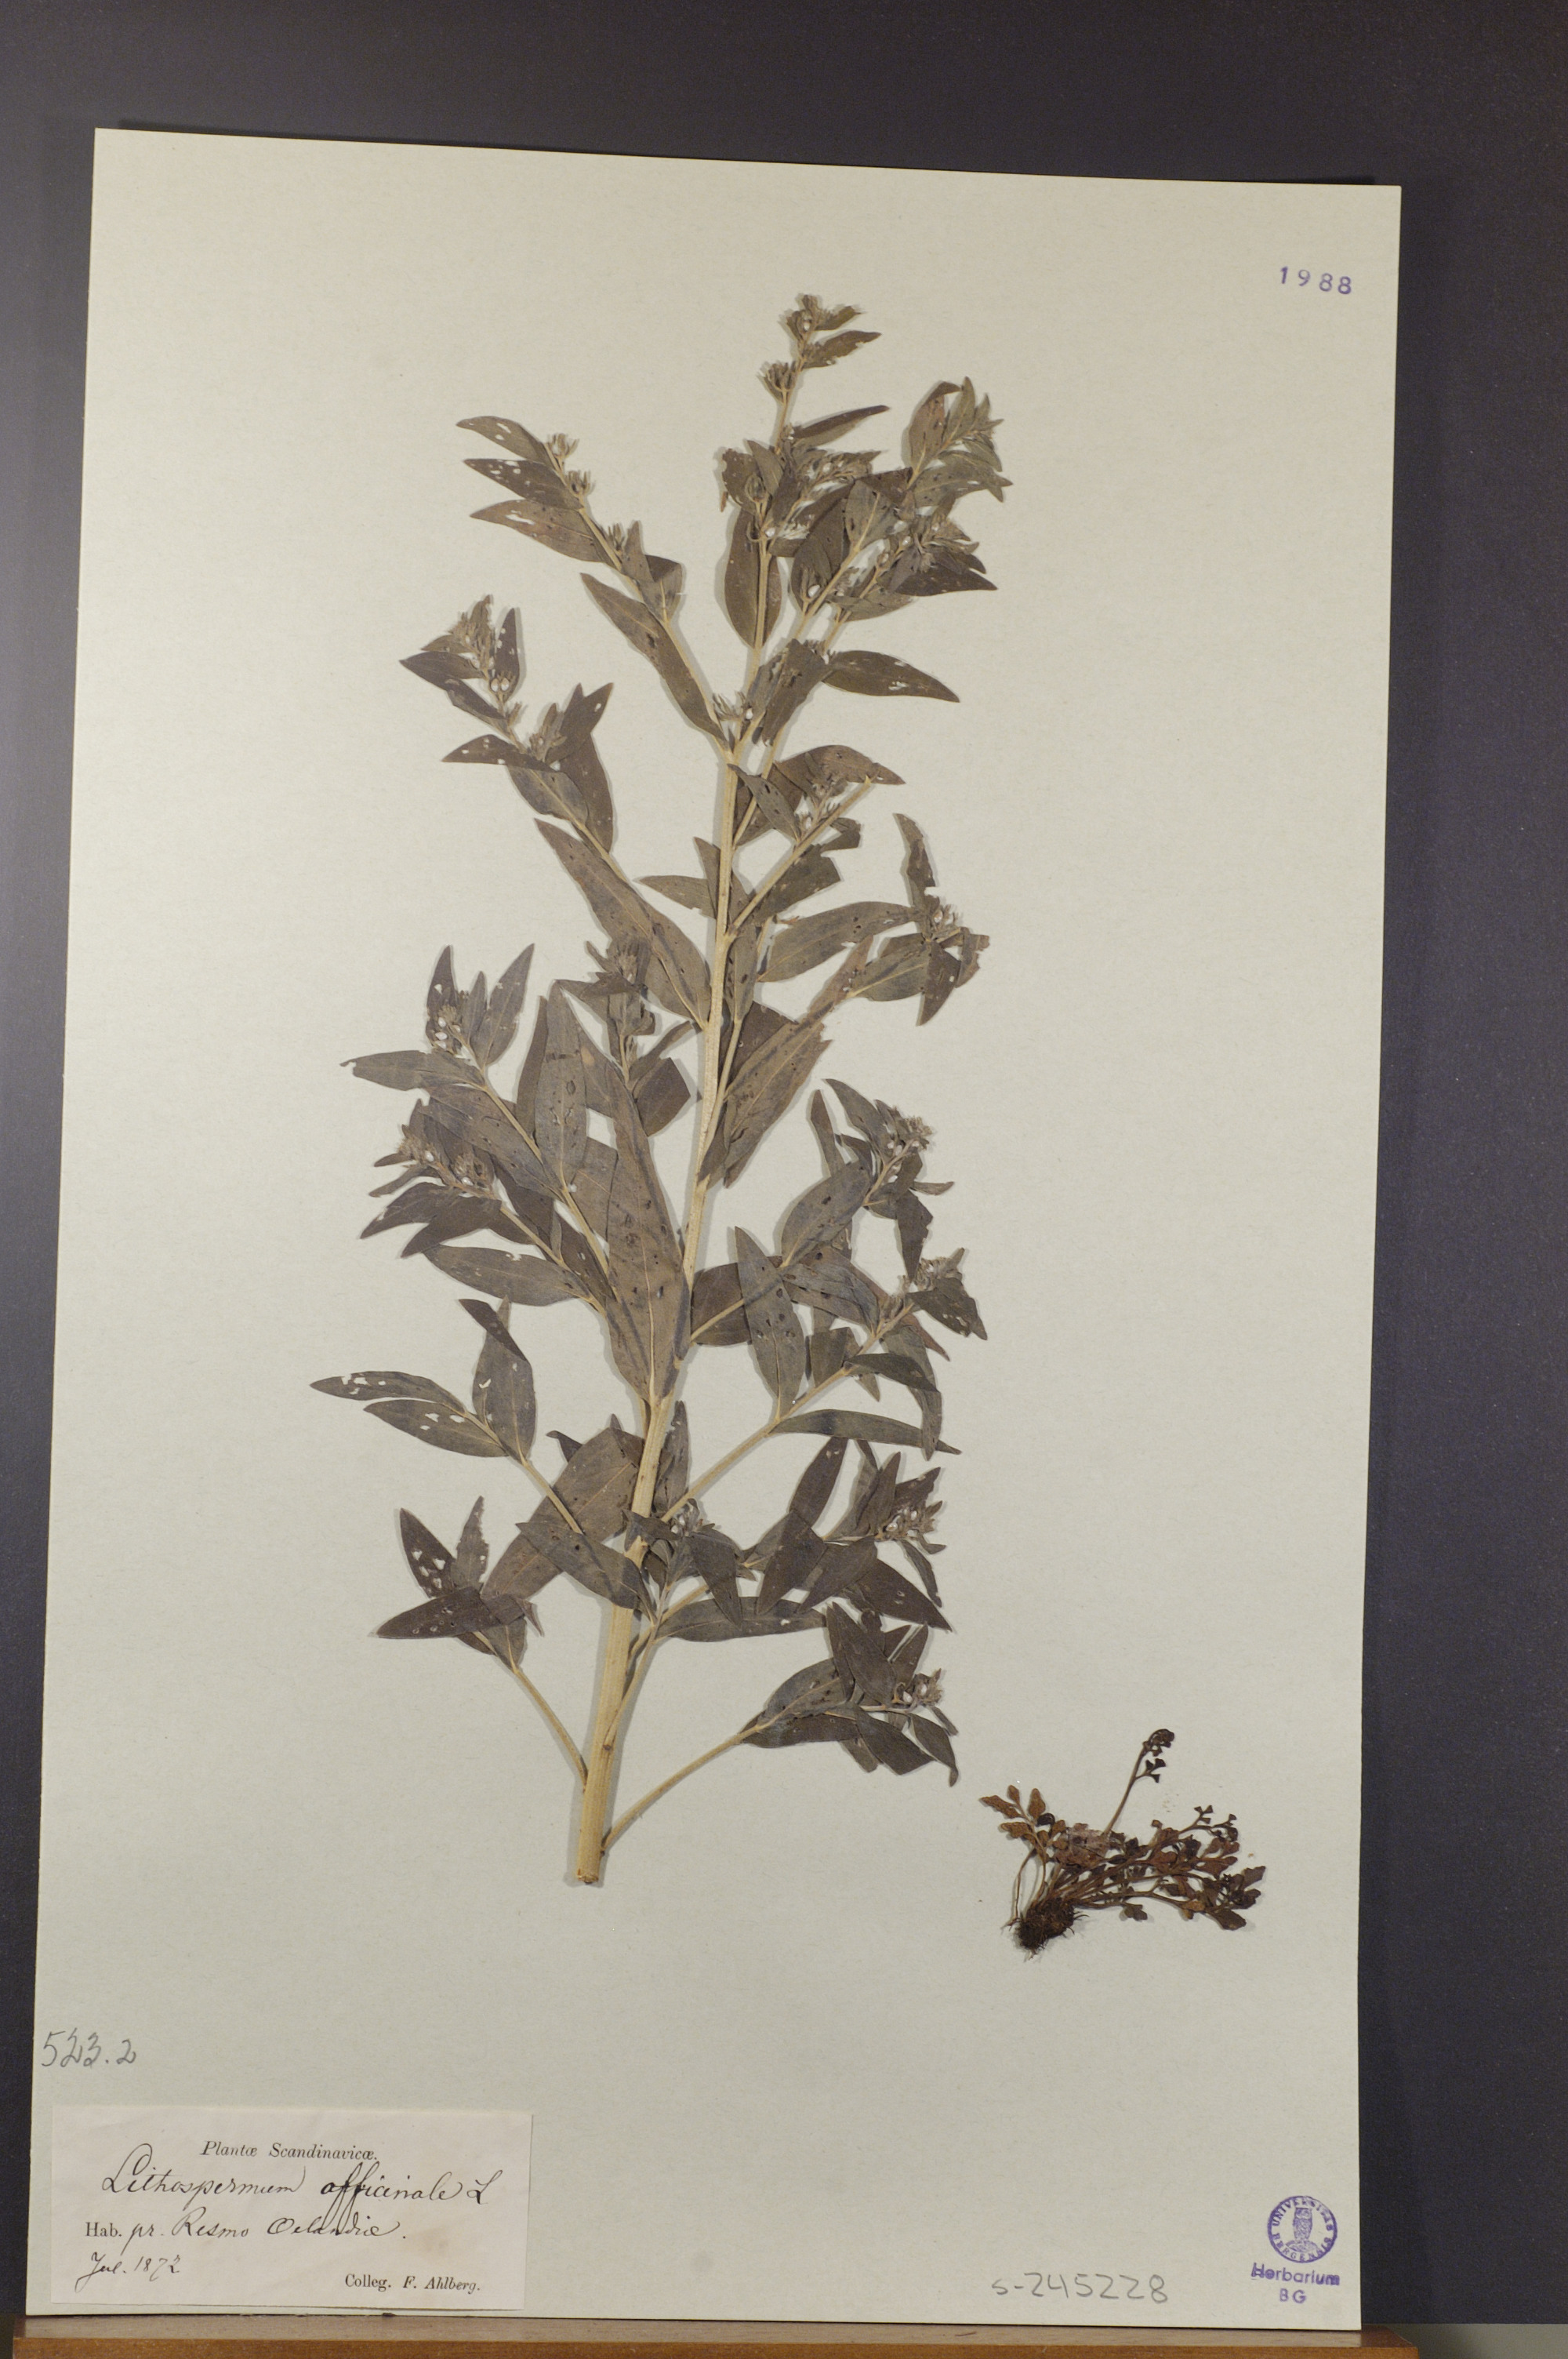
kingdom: Plantae
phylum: Tracheophyta
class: Magnoliopsida
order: Boraginales
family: Boraginaceae
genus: Lithospermum
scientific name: Lithospermum officinale
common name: Common gromwell
